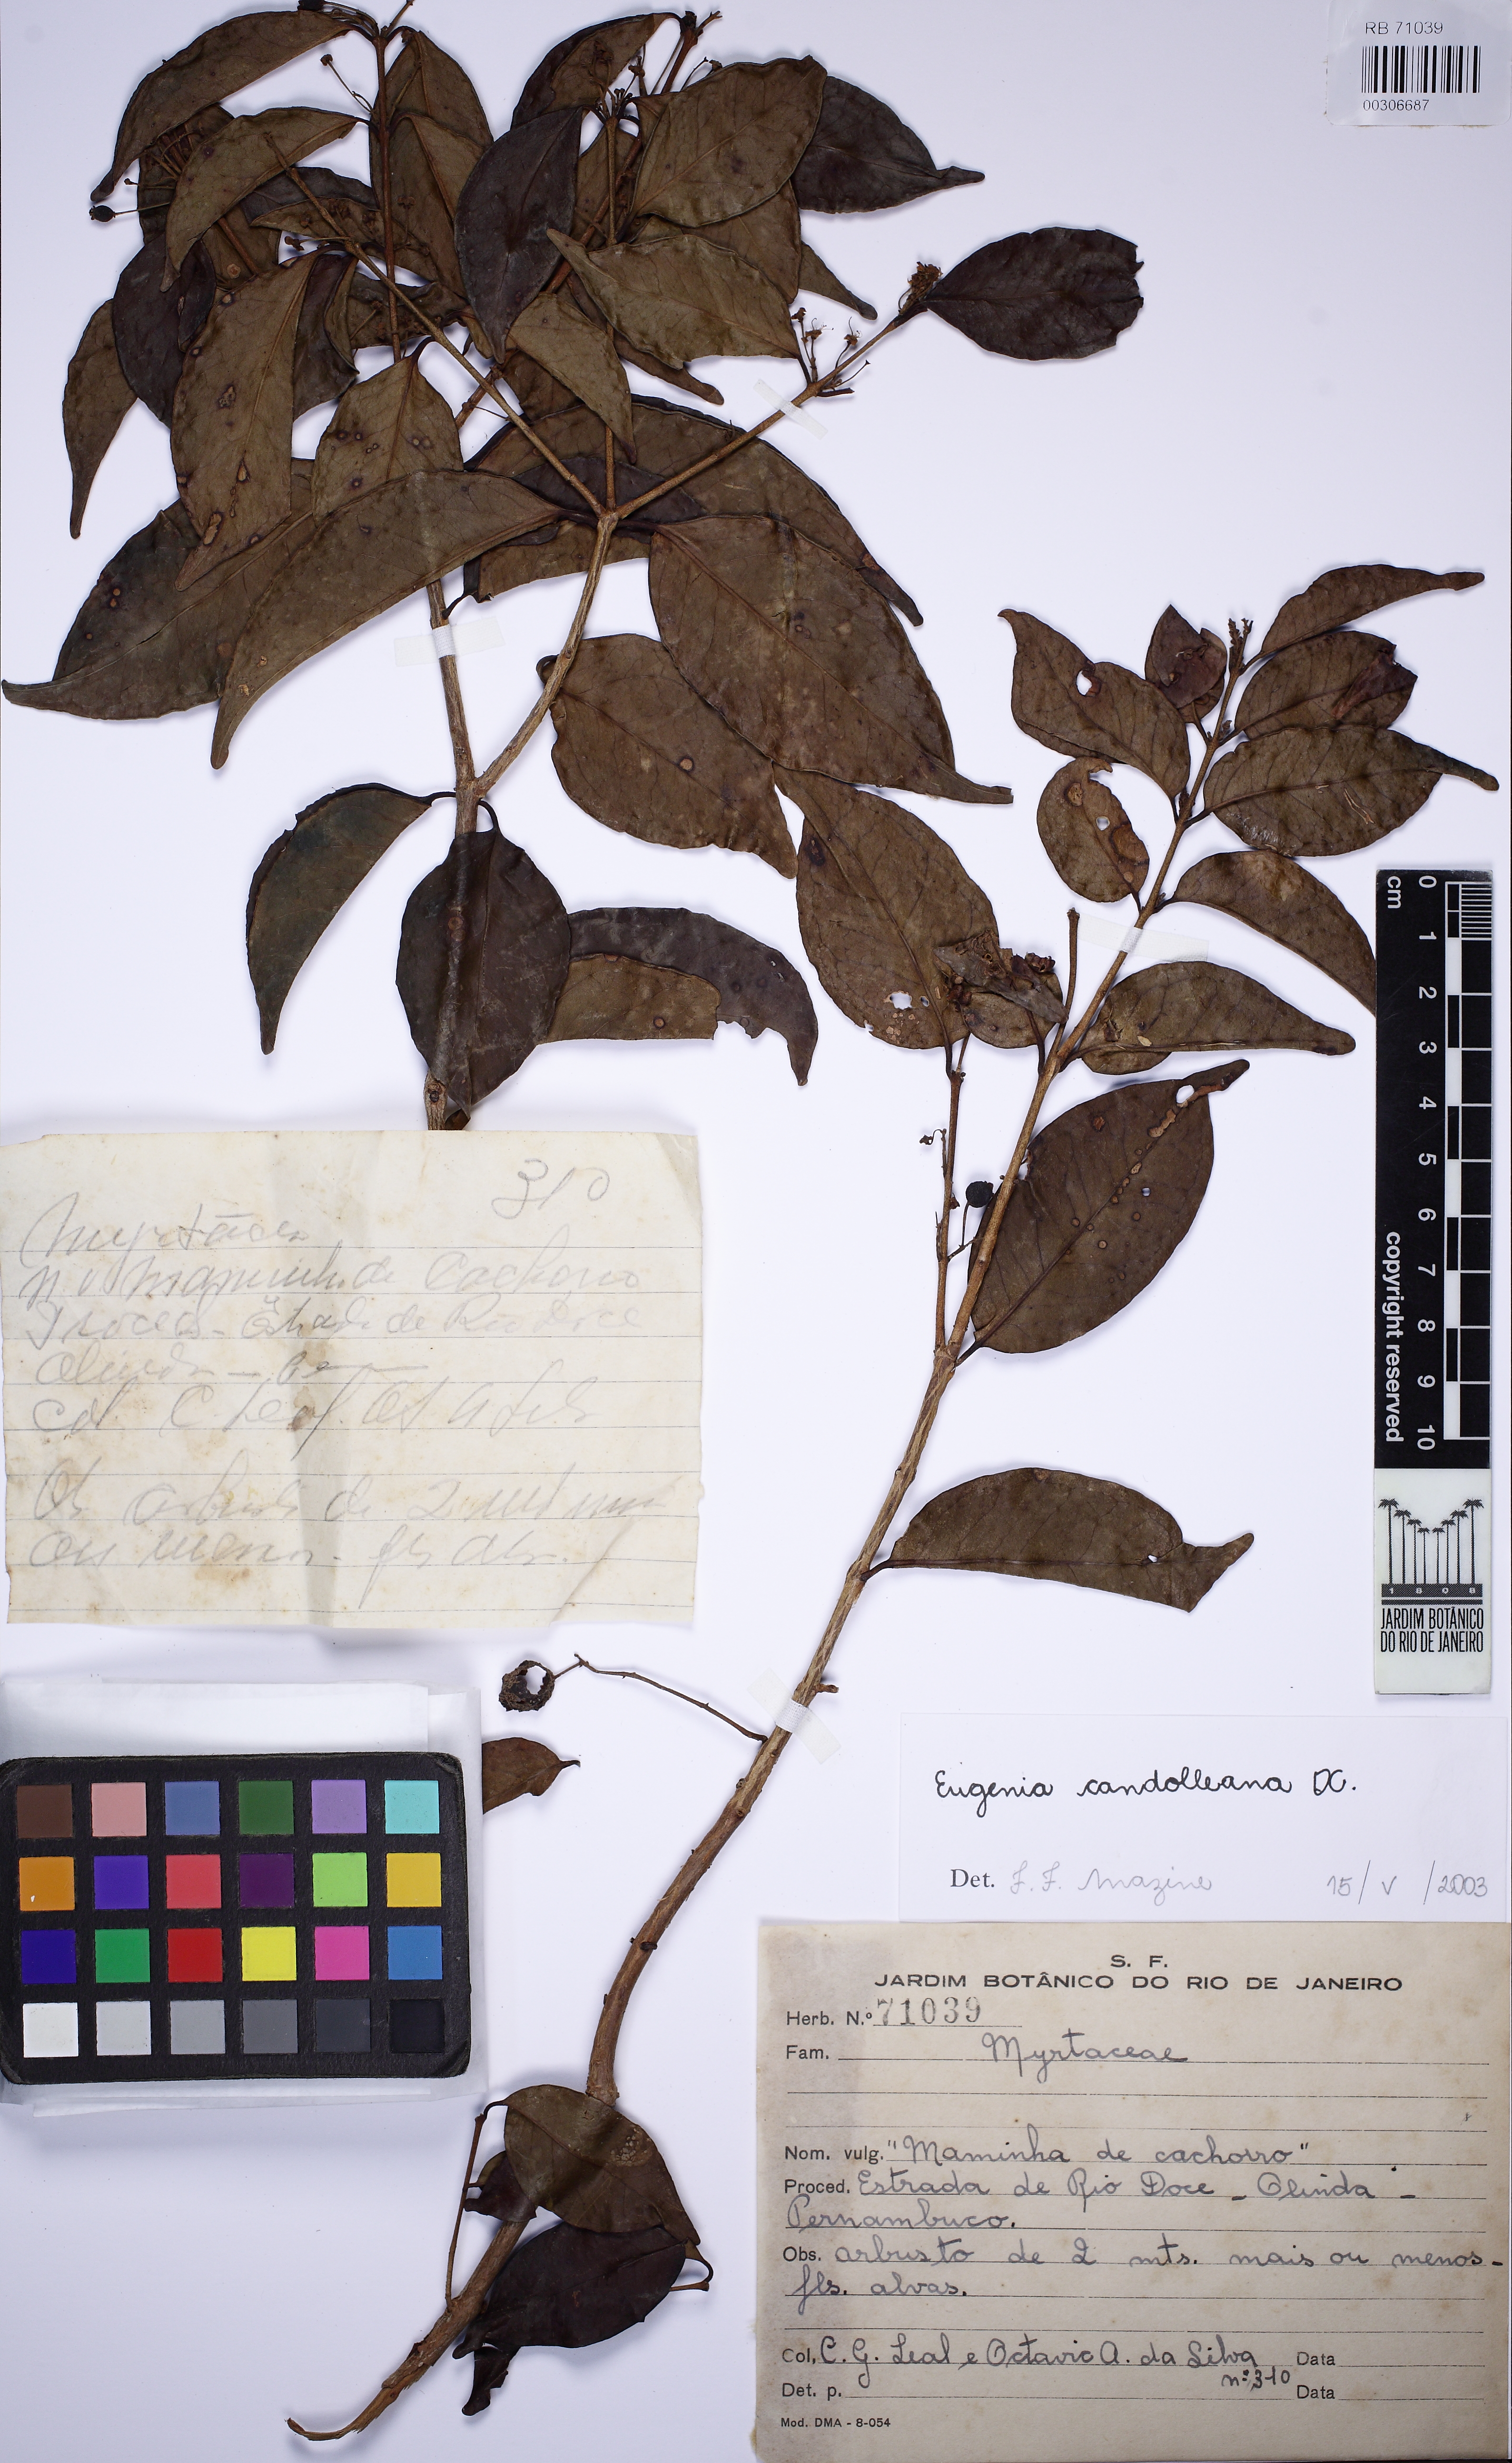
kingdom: Plantae
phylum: Tracheophyta
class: Magnoliopsida
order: Myrtales
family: Myrtaceae
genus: Eugenia
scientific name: Eugenia candolleana
